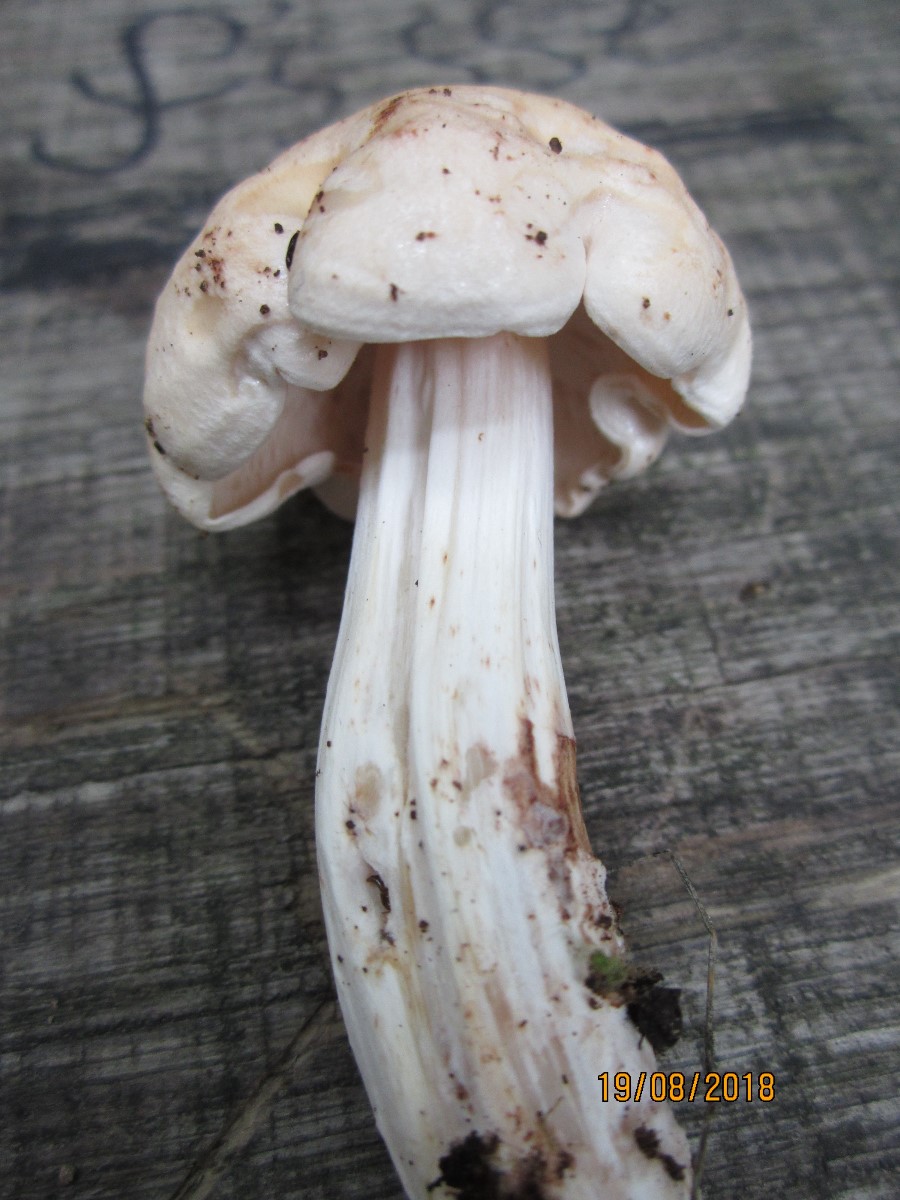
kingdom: Fungi
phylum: Basidiomycota
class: Agaricomycetes
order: Agaricales
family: Omphalotaceae
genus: Rhodocollybia
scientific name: Rhodocollybia maculata
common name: plettet fladhat
